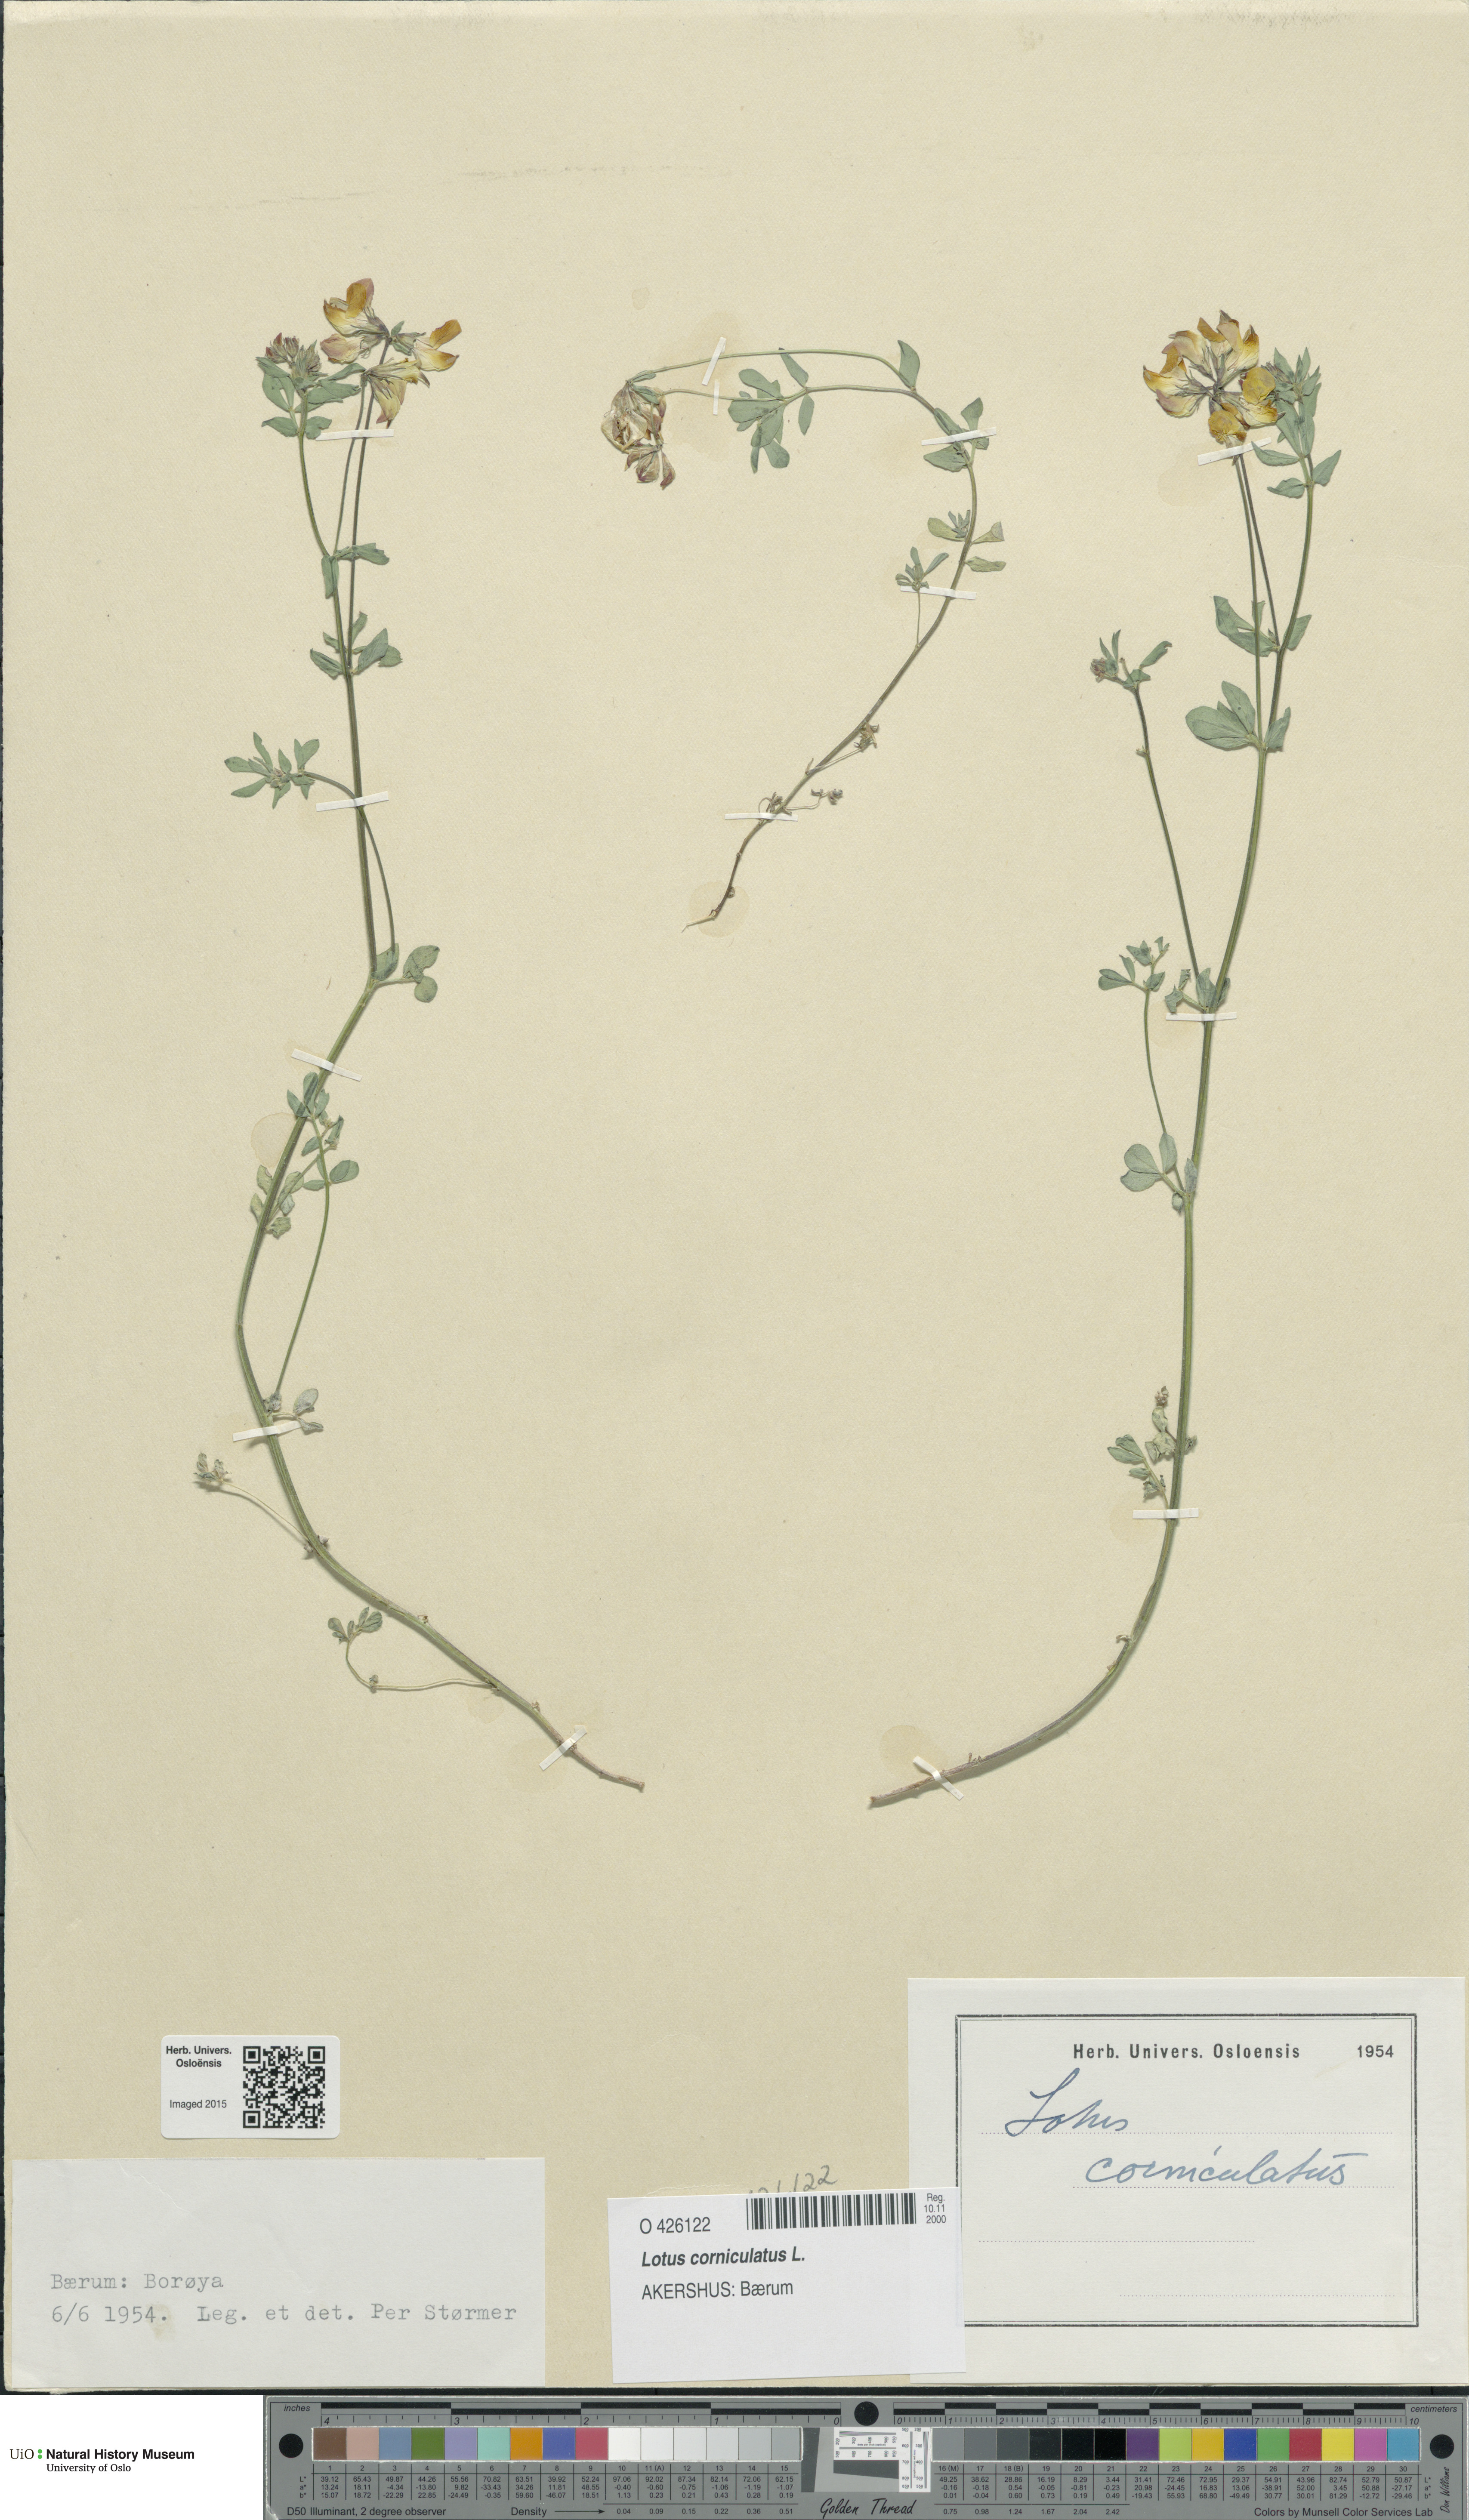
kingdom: Plantae
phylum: Tracheophyta
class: Magnoliopsida
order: Fabales
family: Fabaceae
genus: Lotus
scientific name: Lotus corniculatus
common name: Common bird's-foot-trefoil
